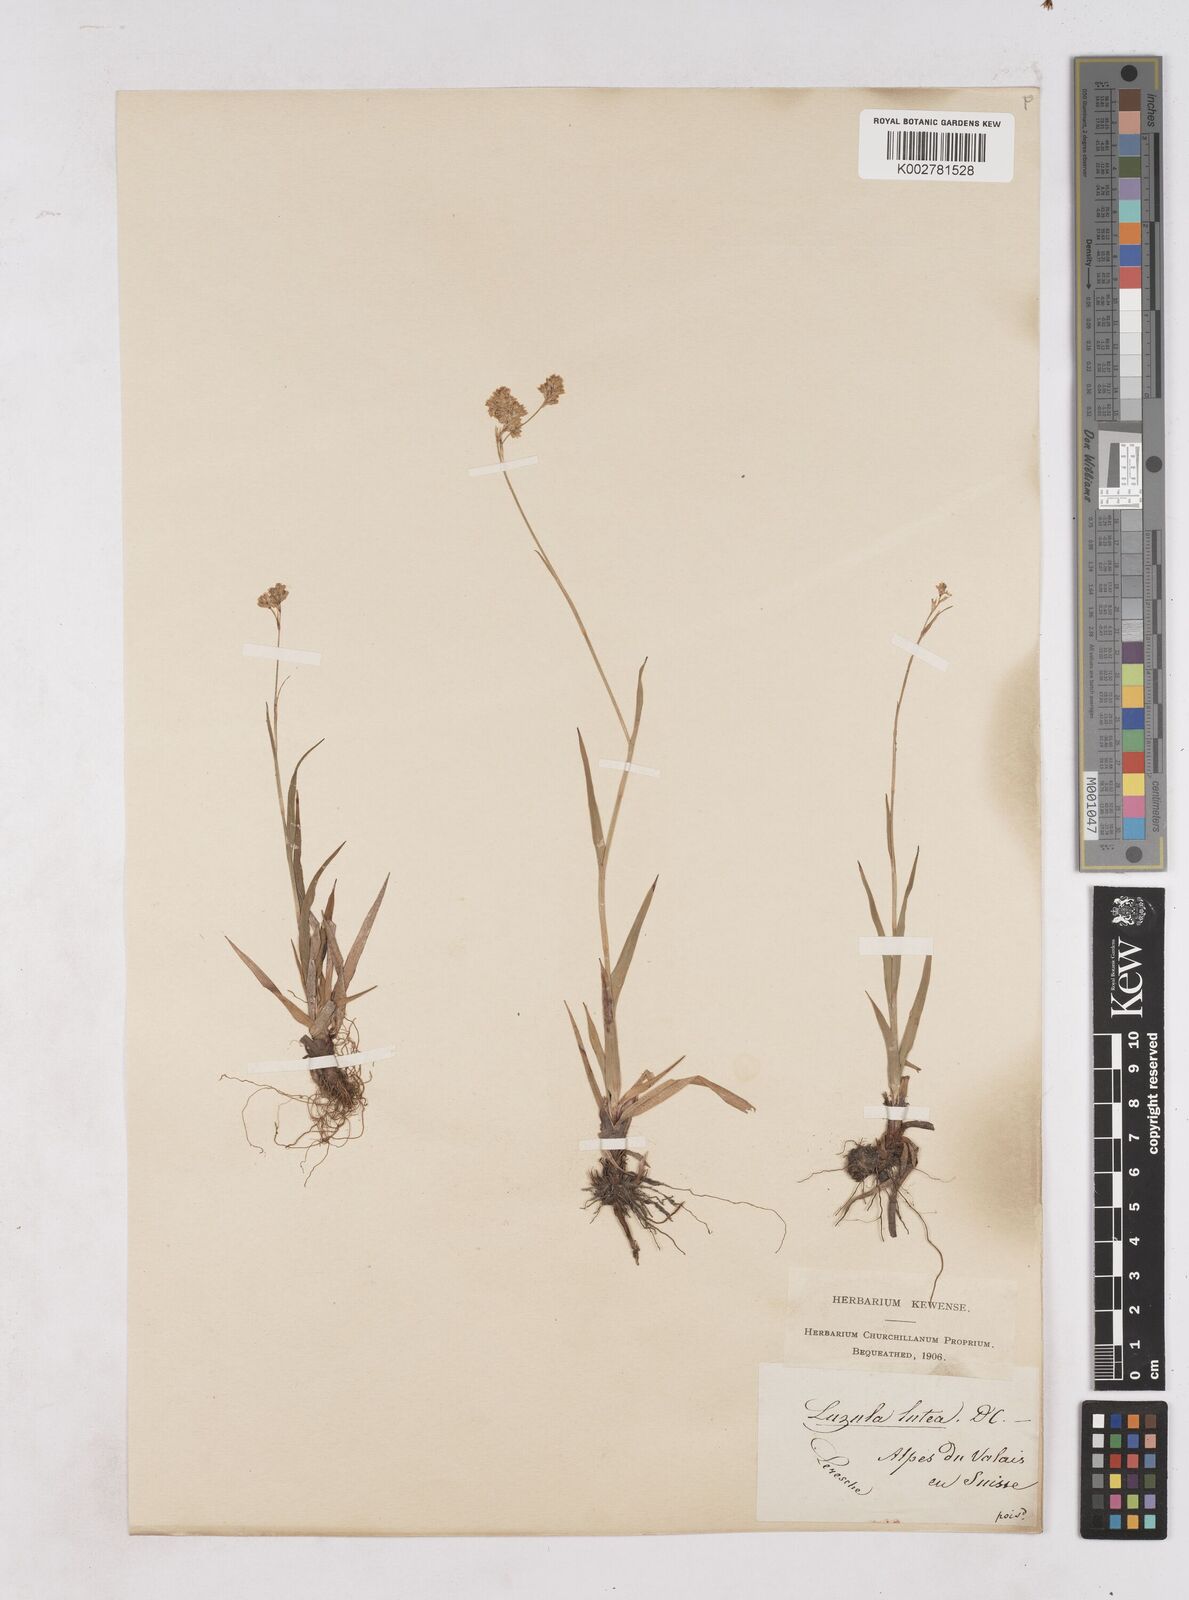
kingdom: Plantae
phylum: Tracheophyta
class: Liliopsida
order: Poales
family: Juncaceae
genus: Luzula
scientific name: Luzula lutea
